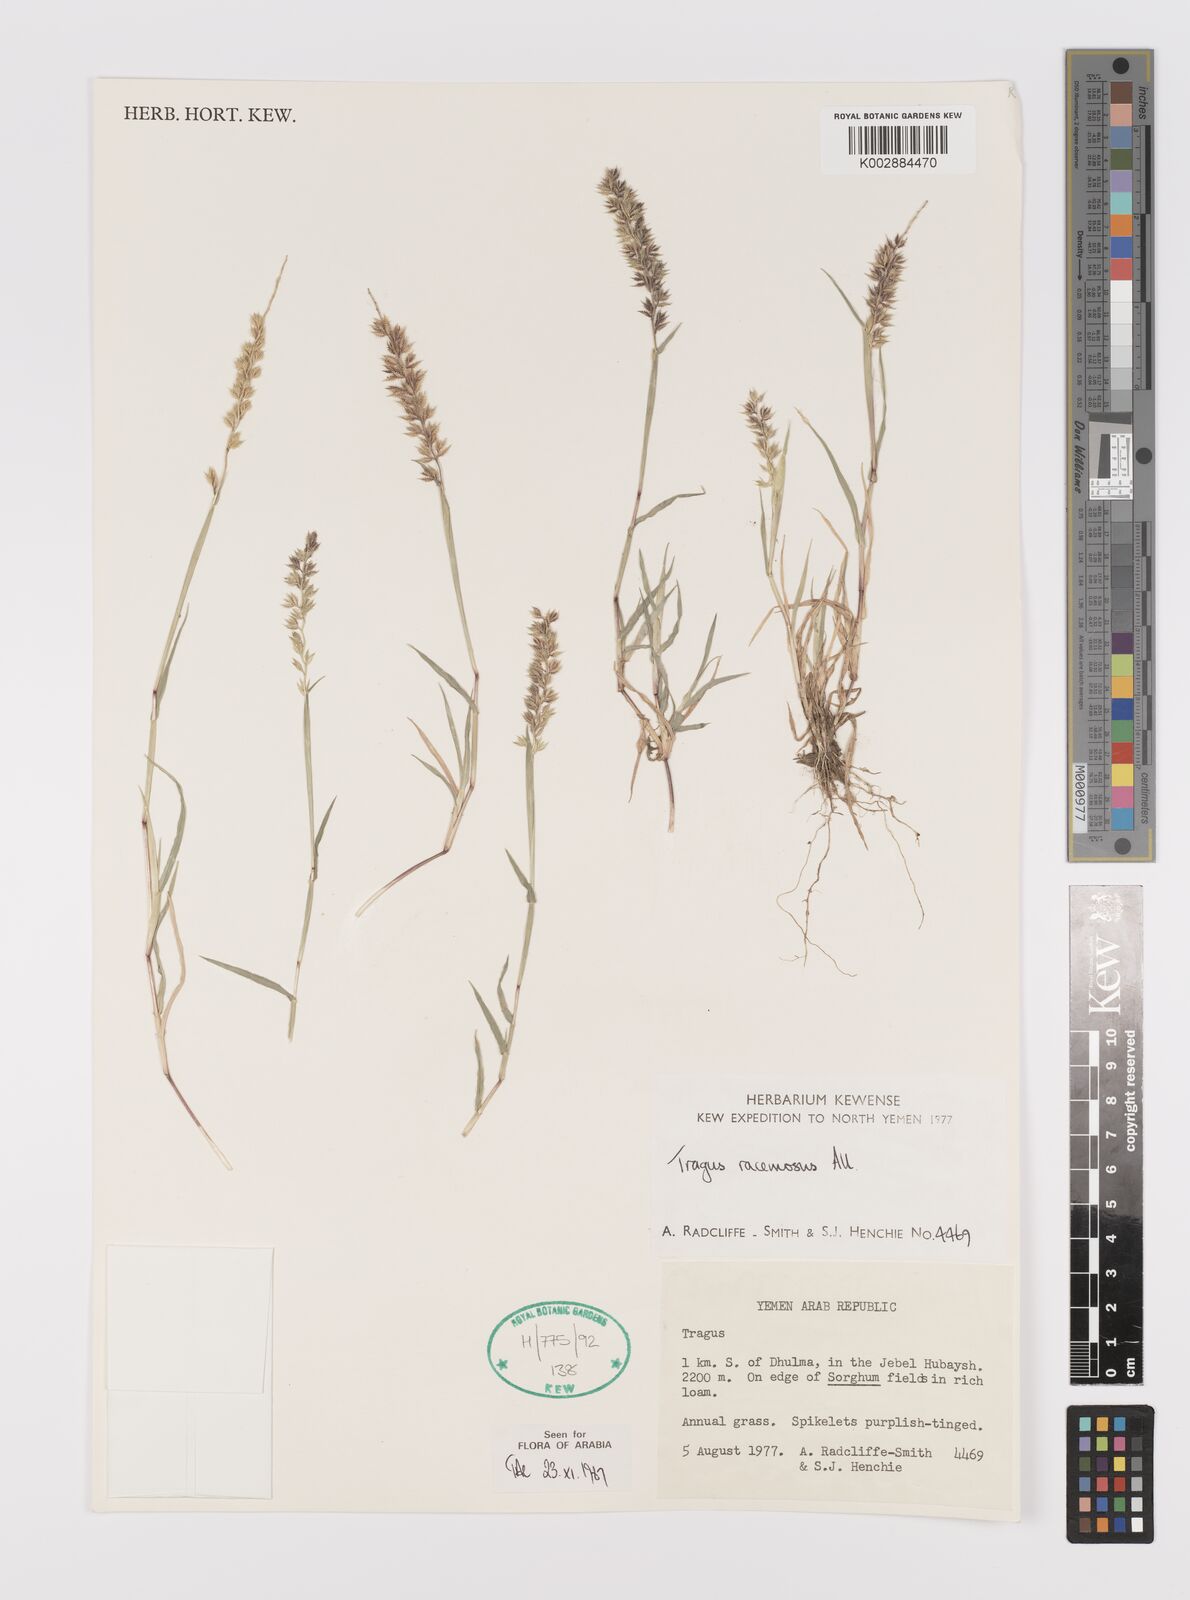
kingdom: Plantae
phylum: Tracheophyta
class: Liliopsida
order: Poales
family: Poaceae
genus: Tragus
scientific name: Tragus racemosus
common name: European bur-grass
